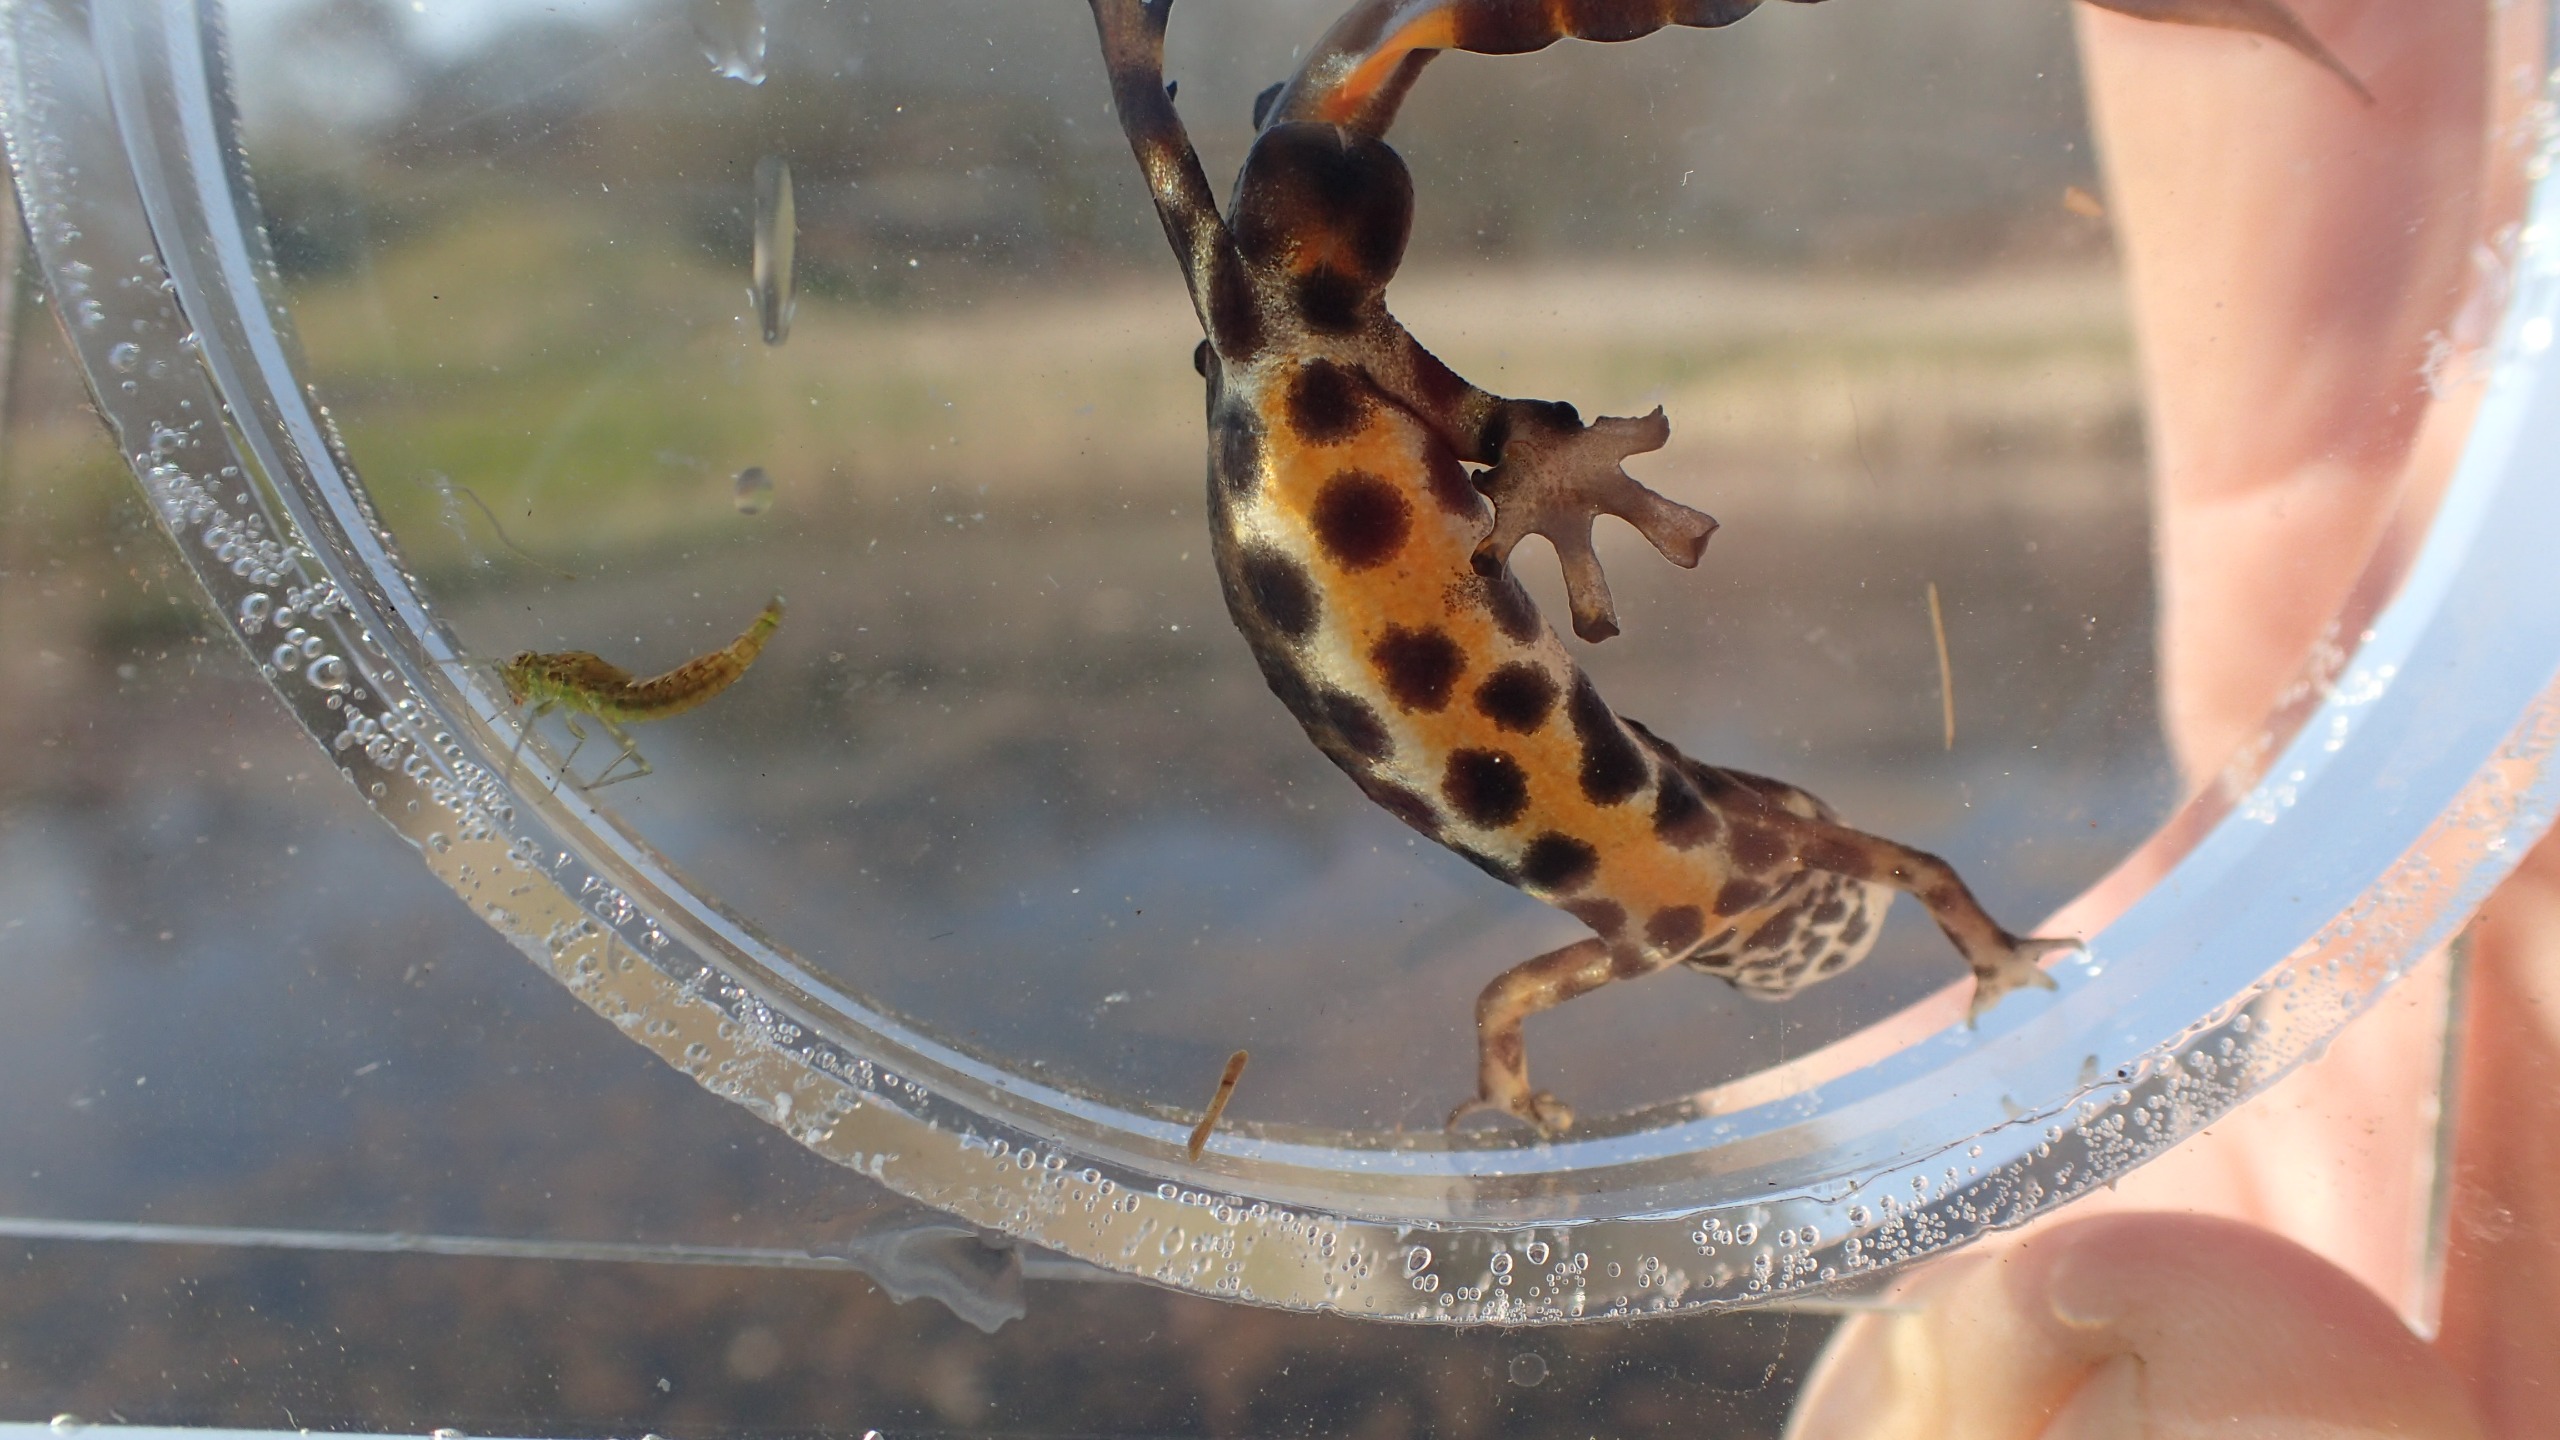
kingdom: Animalia
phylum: Chordata
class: Amphibia
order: Caudata
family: Salamandridae
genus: Lissotriton
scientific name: Lissotriton vulgaris
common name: Lille vandsalamander
